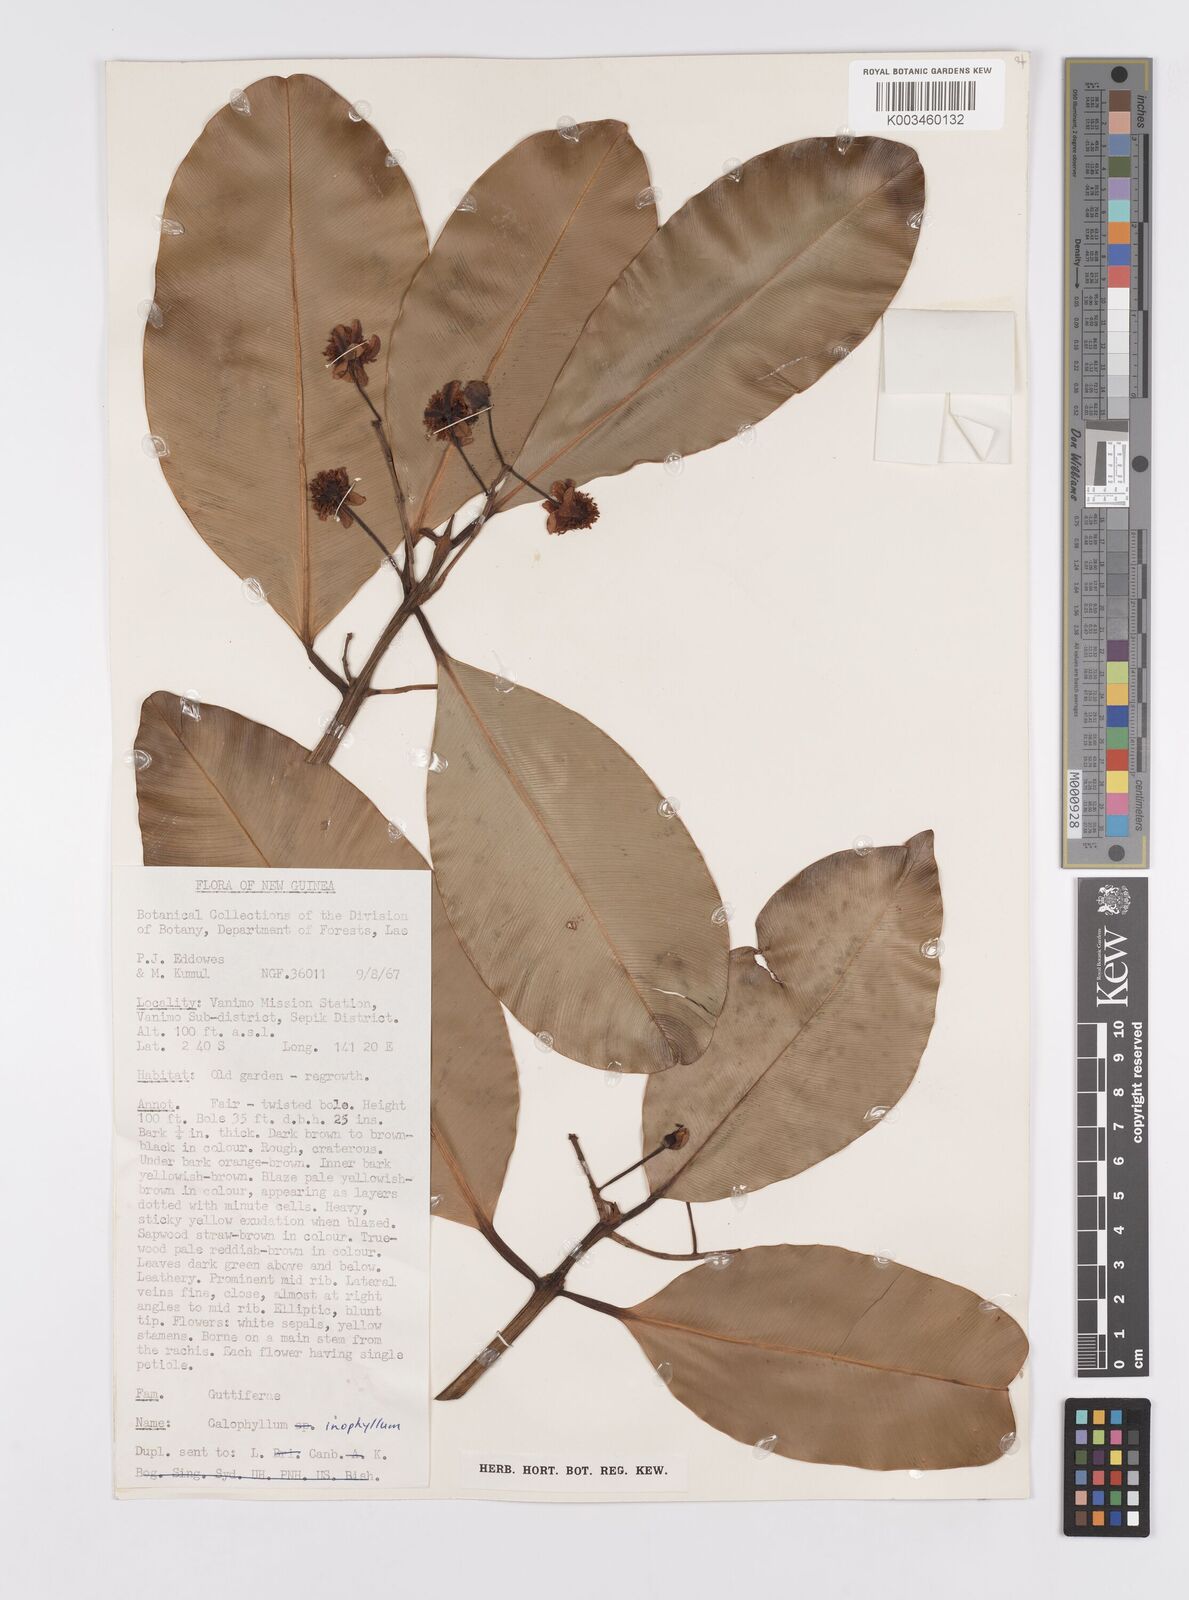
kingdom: Plantae
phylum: Tracheophyta
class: Magnoliopsida
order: Malpighiales
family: Calophyllaceae
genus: Calophyllum
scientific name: Calophyllum inophyllum
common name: Alexandrian laurel
